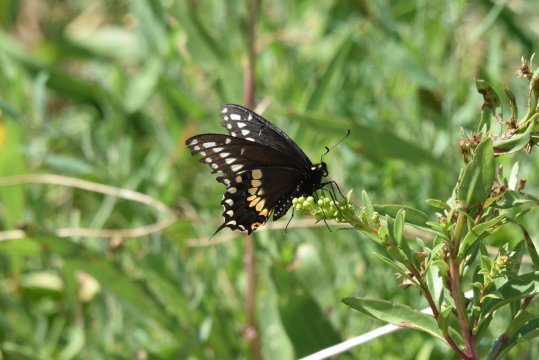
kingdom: Animalia
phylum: Arthropoda
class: Insecta
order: Lepidoptera
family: Papilionidae
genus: Papilio
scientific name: Papilio polyxenes
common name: Black Swallowtail
